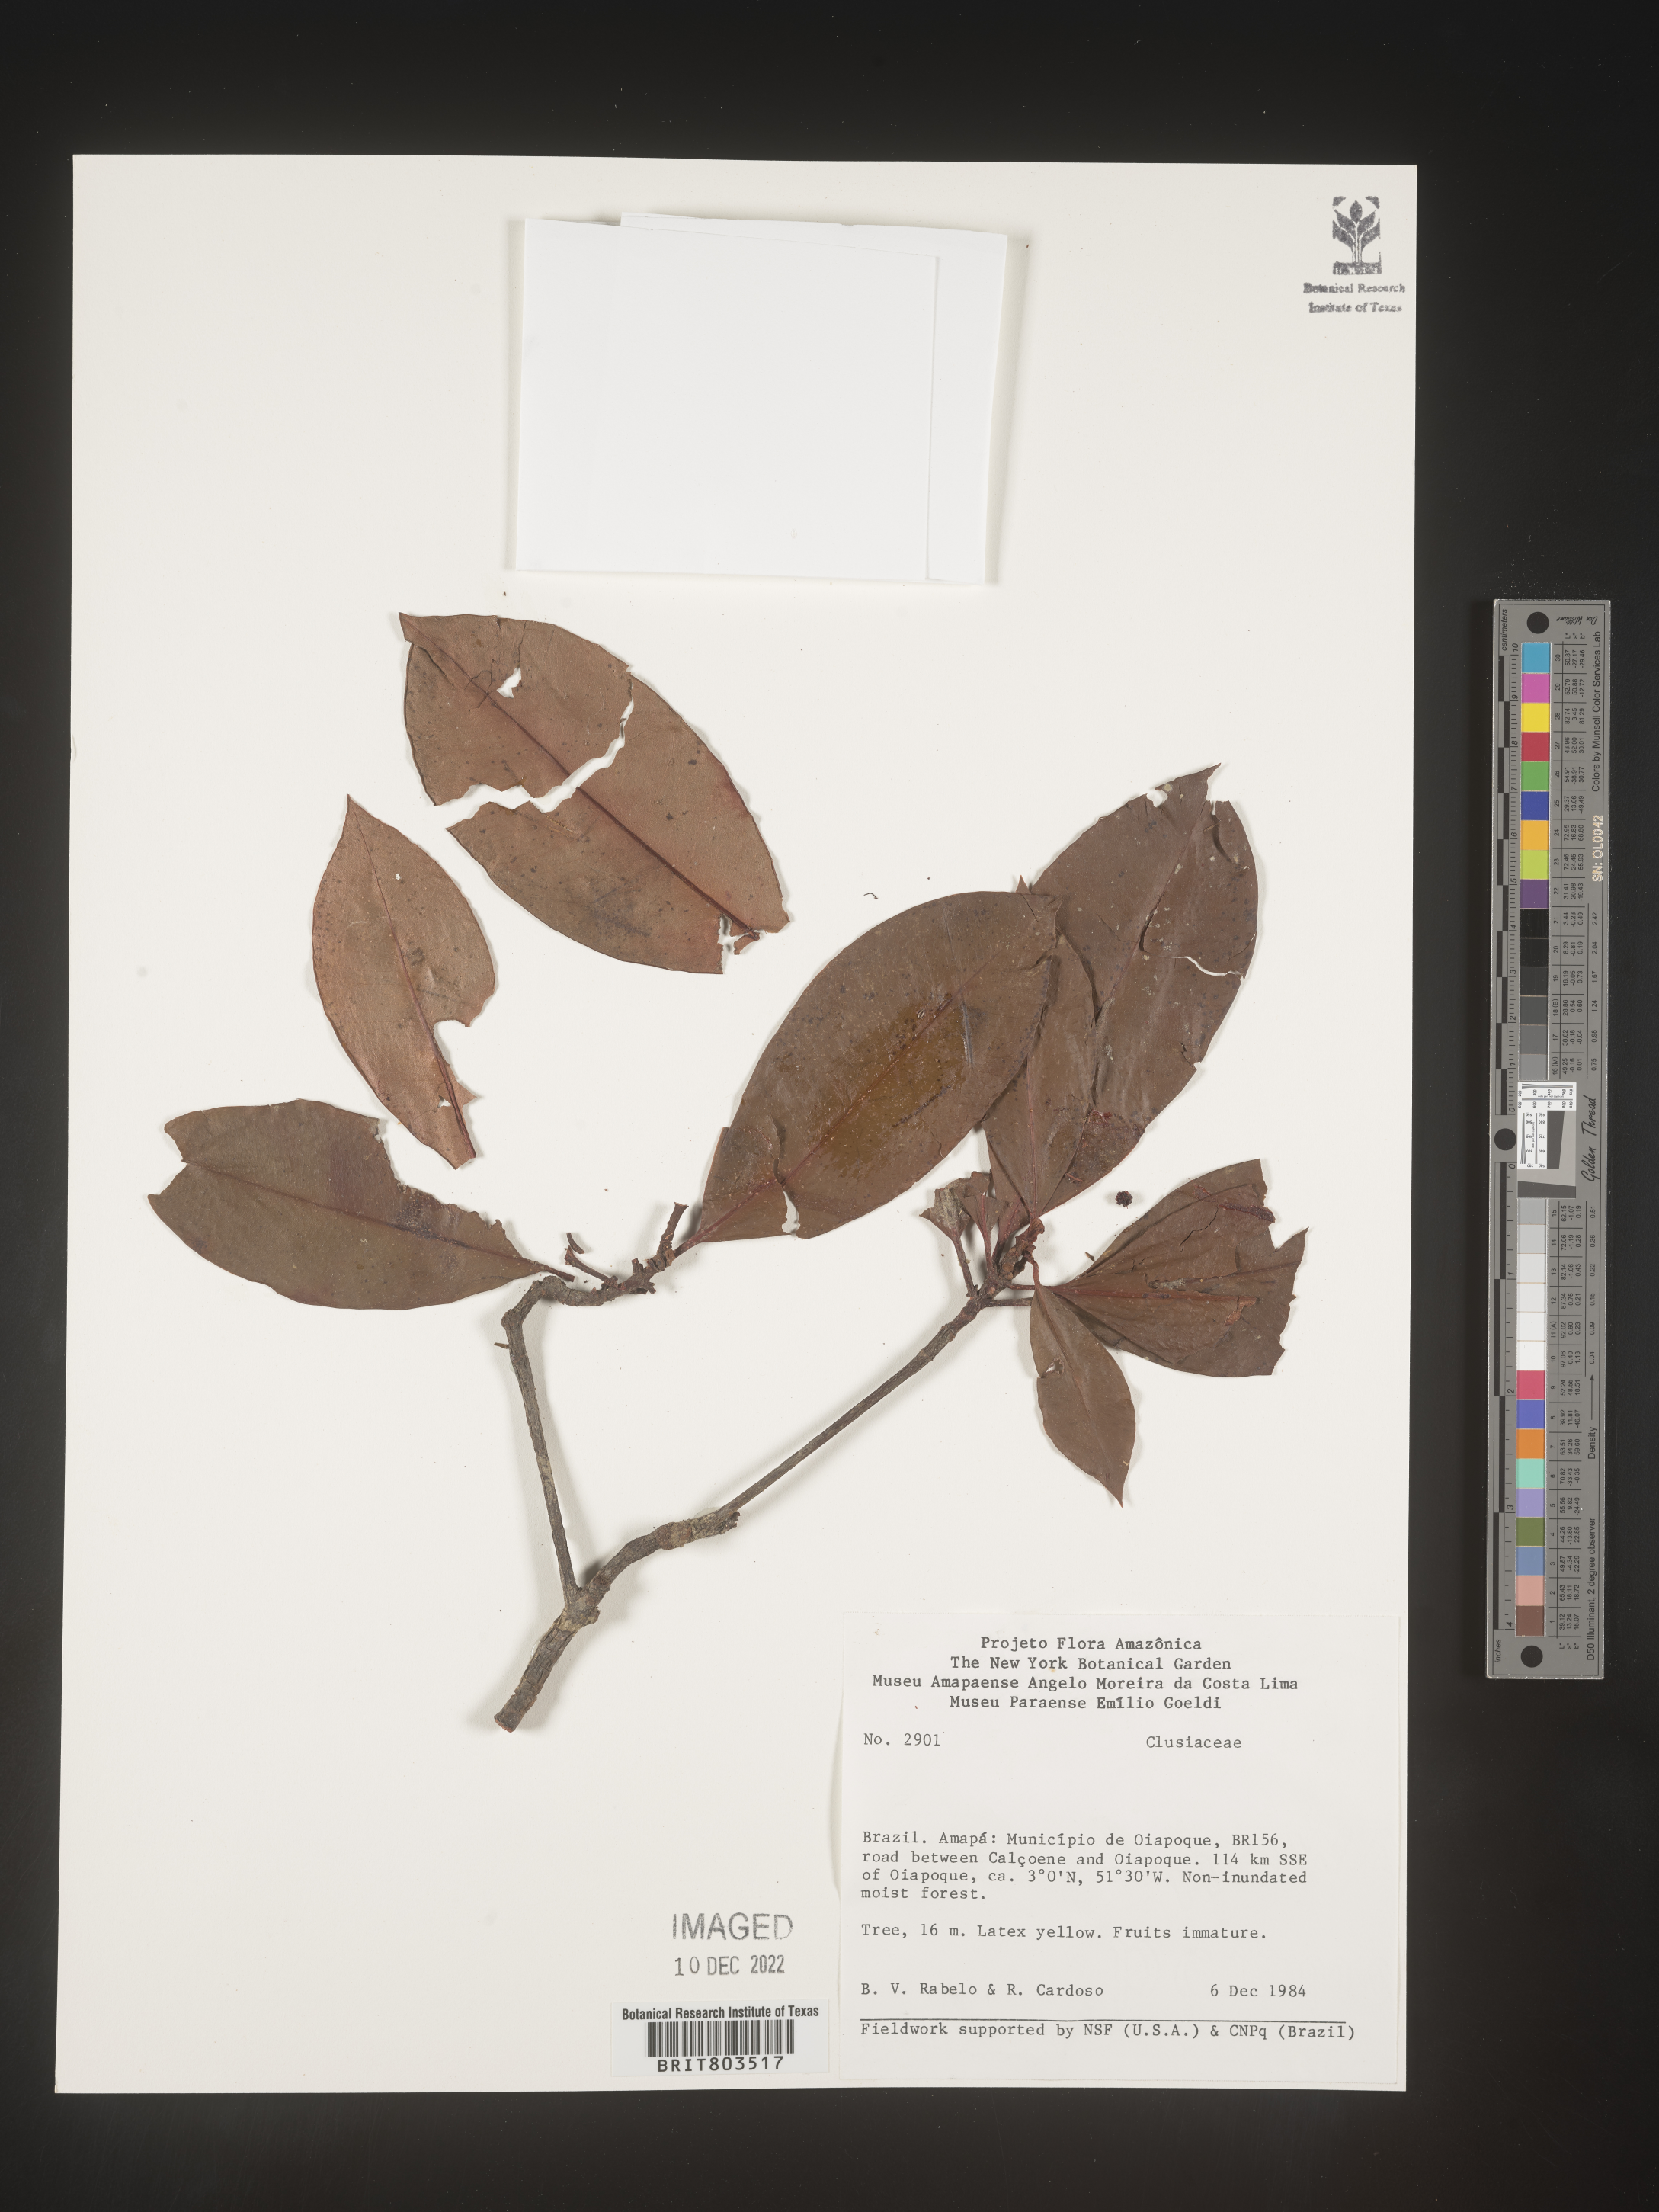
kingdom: Plantae
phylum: Tracheophyta
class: Magnoliopsida
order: Malpighiales
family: Clusiaceae
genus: Tovomita
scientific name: Tovomita
